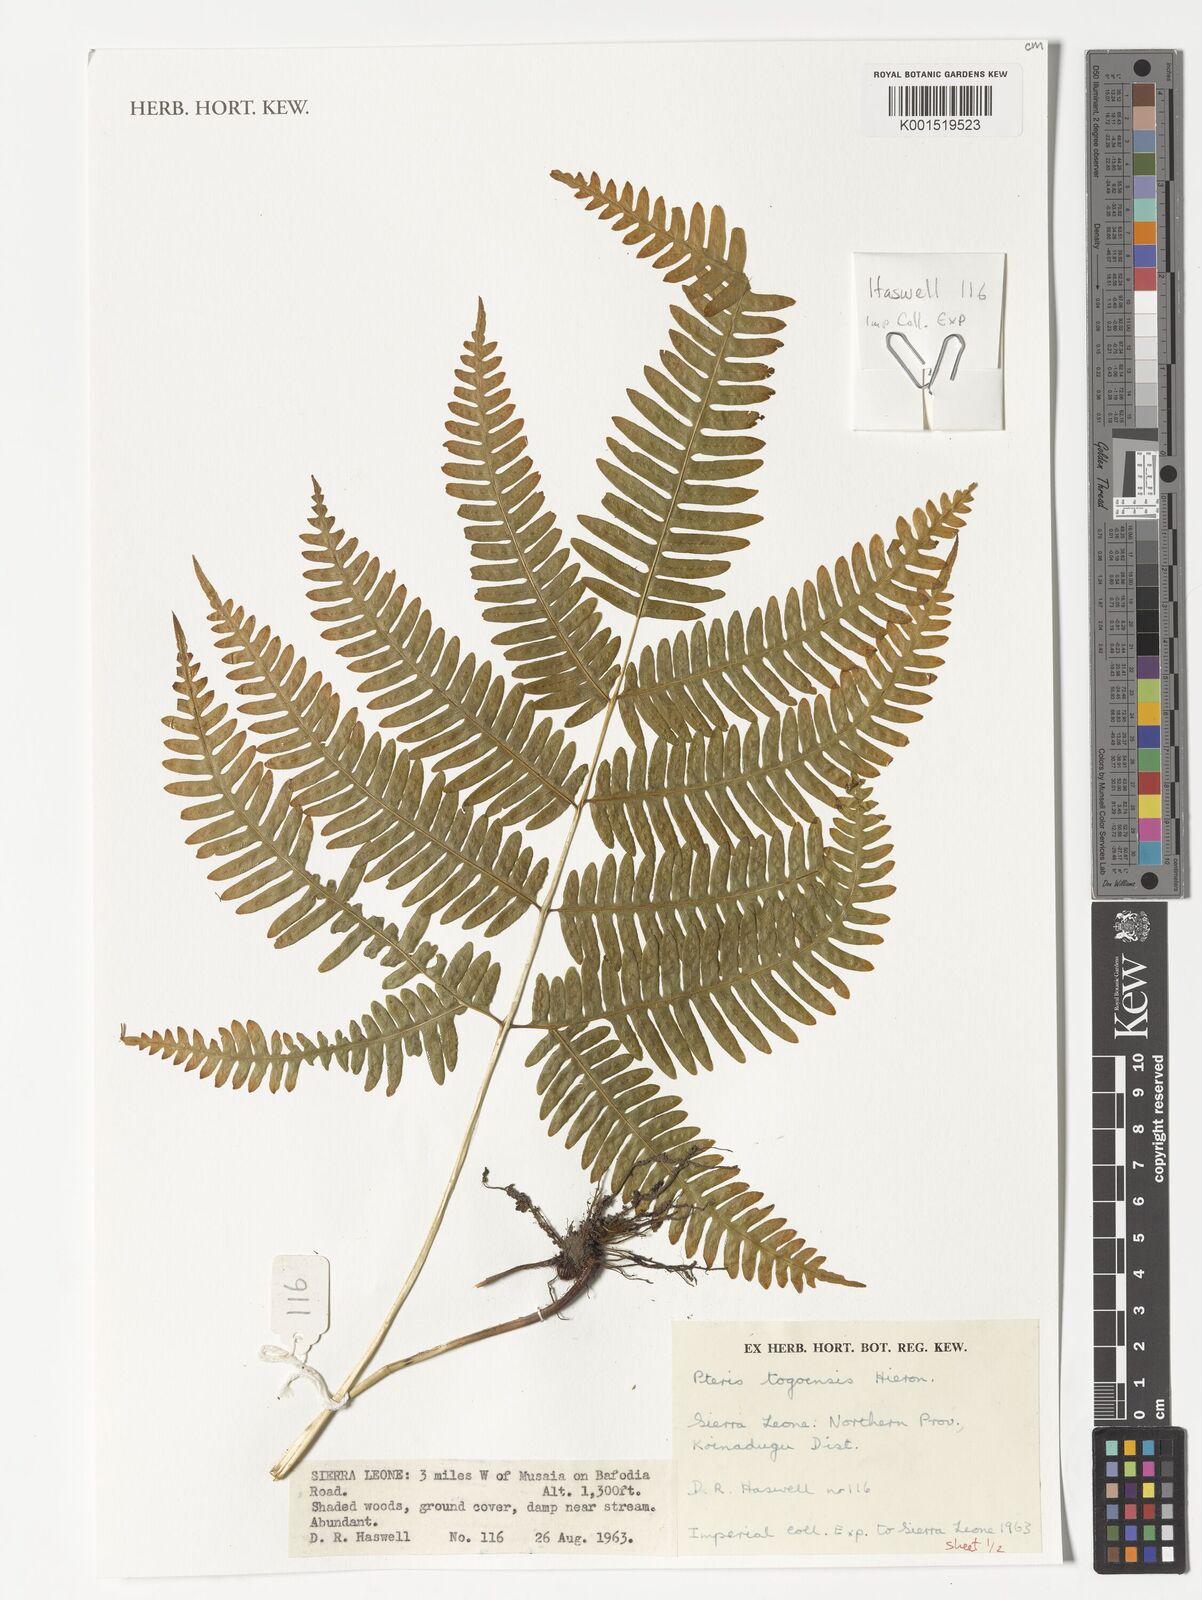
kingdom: Plantae
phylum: Tracheophyta
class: Polypodiopsida
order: Polypodiales
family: Pteridaceae
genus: Pteris
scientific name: Pteris togoensis
